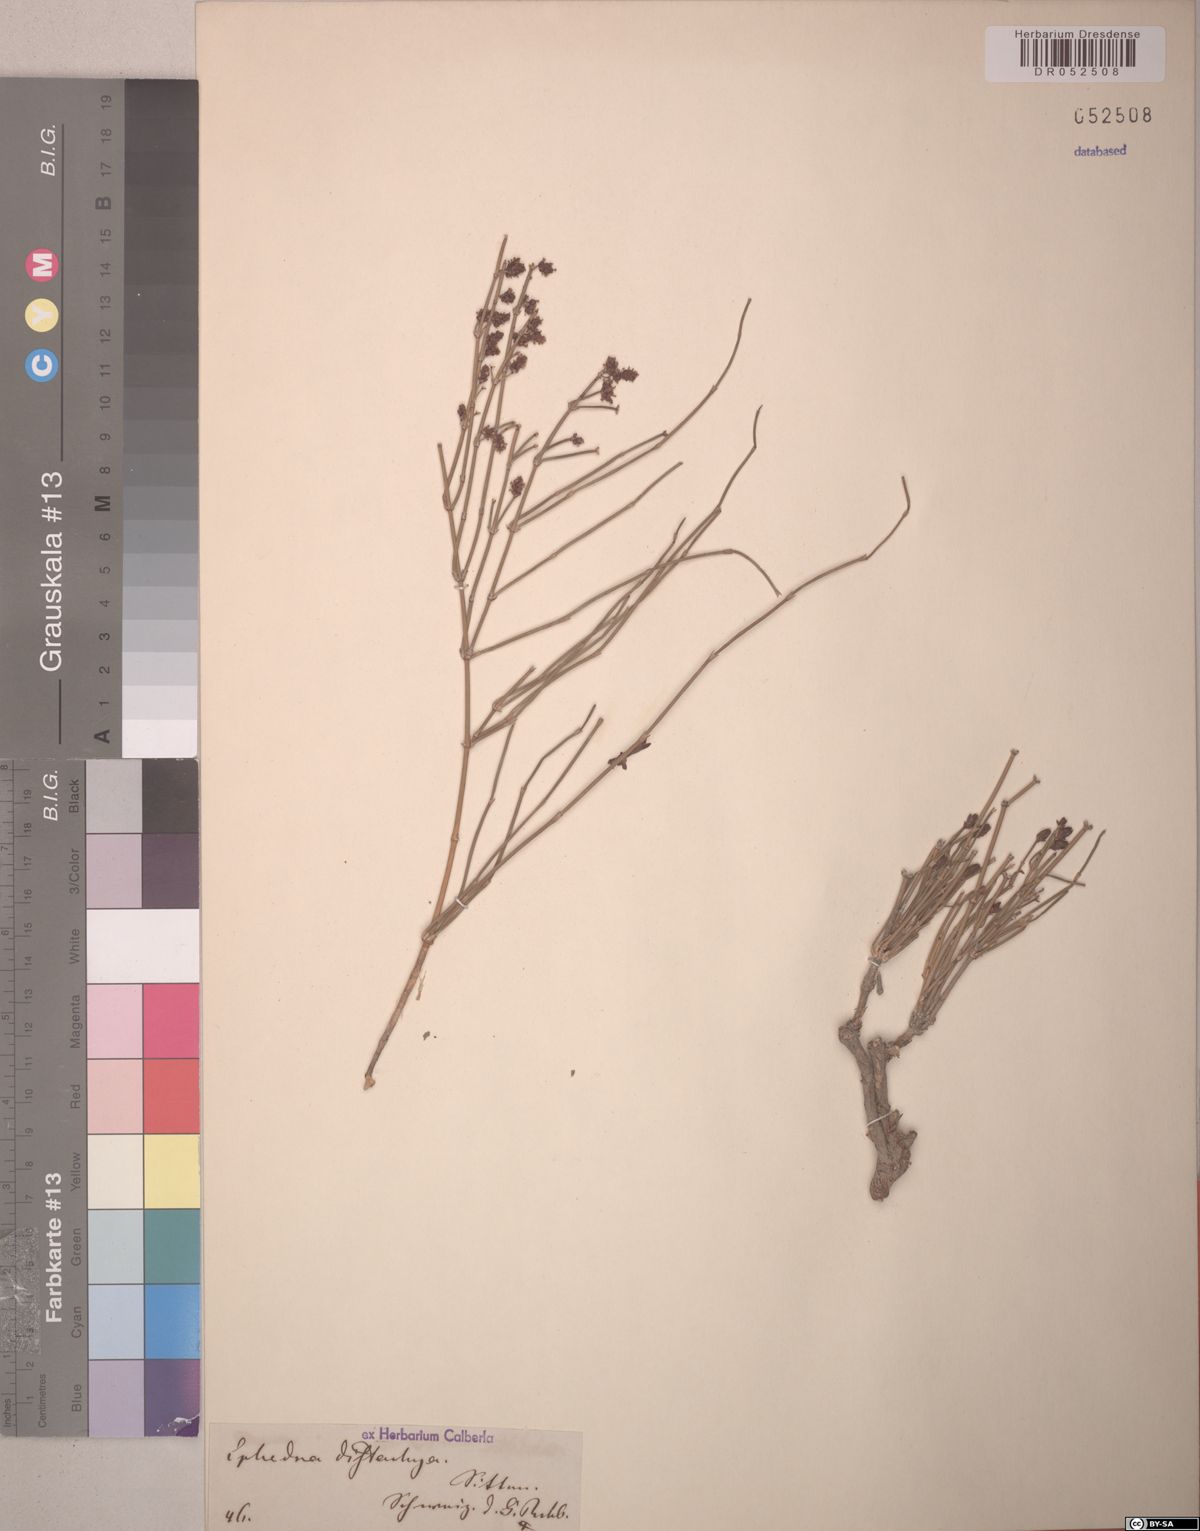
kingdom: Plantae
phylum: Tracheophyta
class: Gnetopsida
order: Ephedrales
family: Ephedraceae
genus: Ephedra
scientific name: Ephedra distachya
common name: Sea grape
